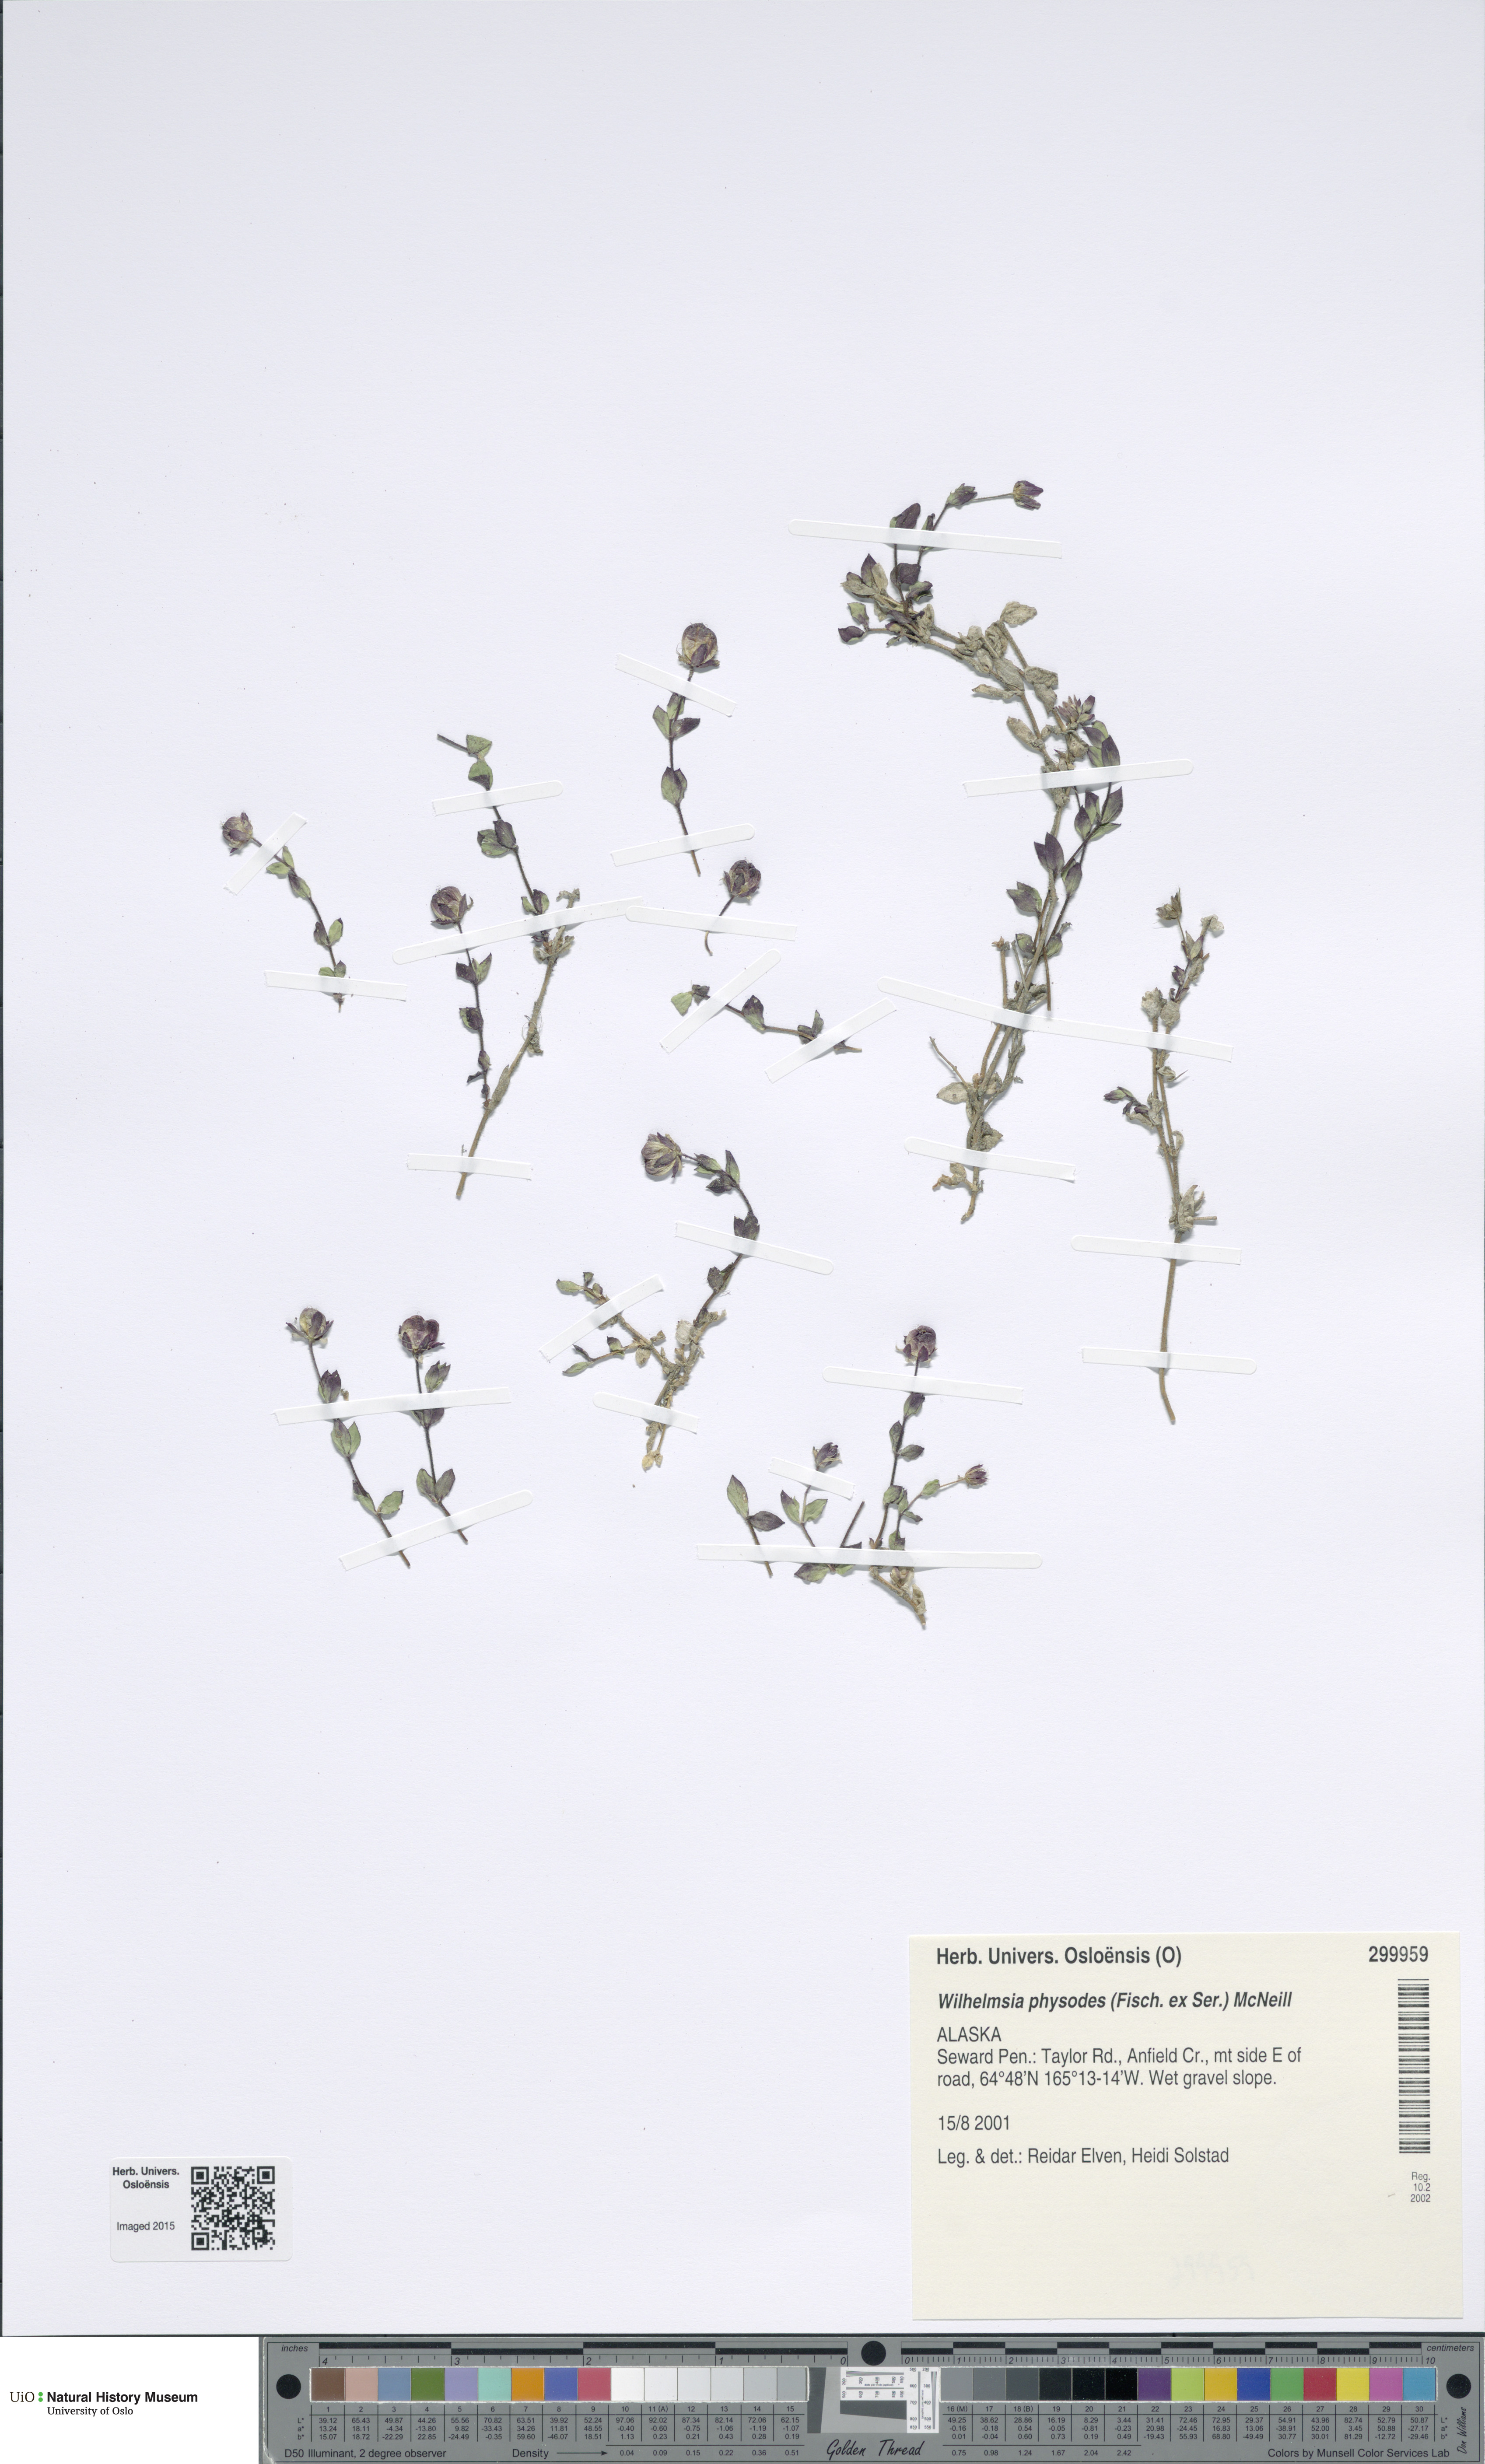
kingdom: Plantae
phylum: Tracheophyta
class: Magnoliopsida
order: Caryophyllales
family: Caryophyllaceae
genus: Wilhelmsia
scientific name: Wilhelmsia physodes
